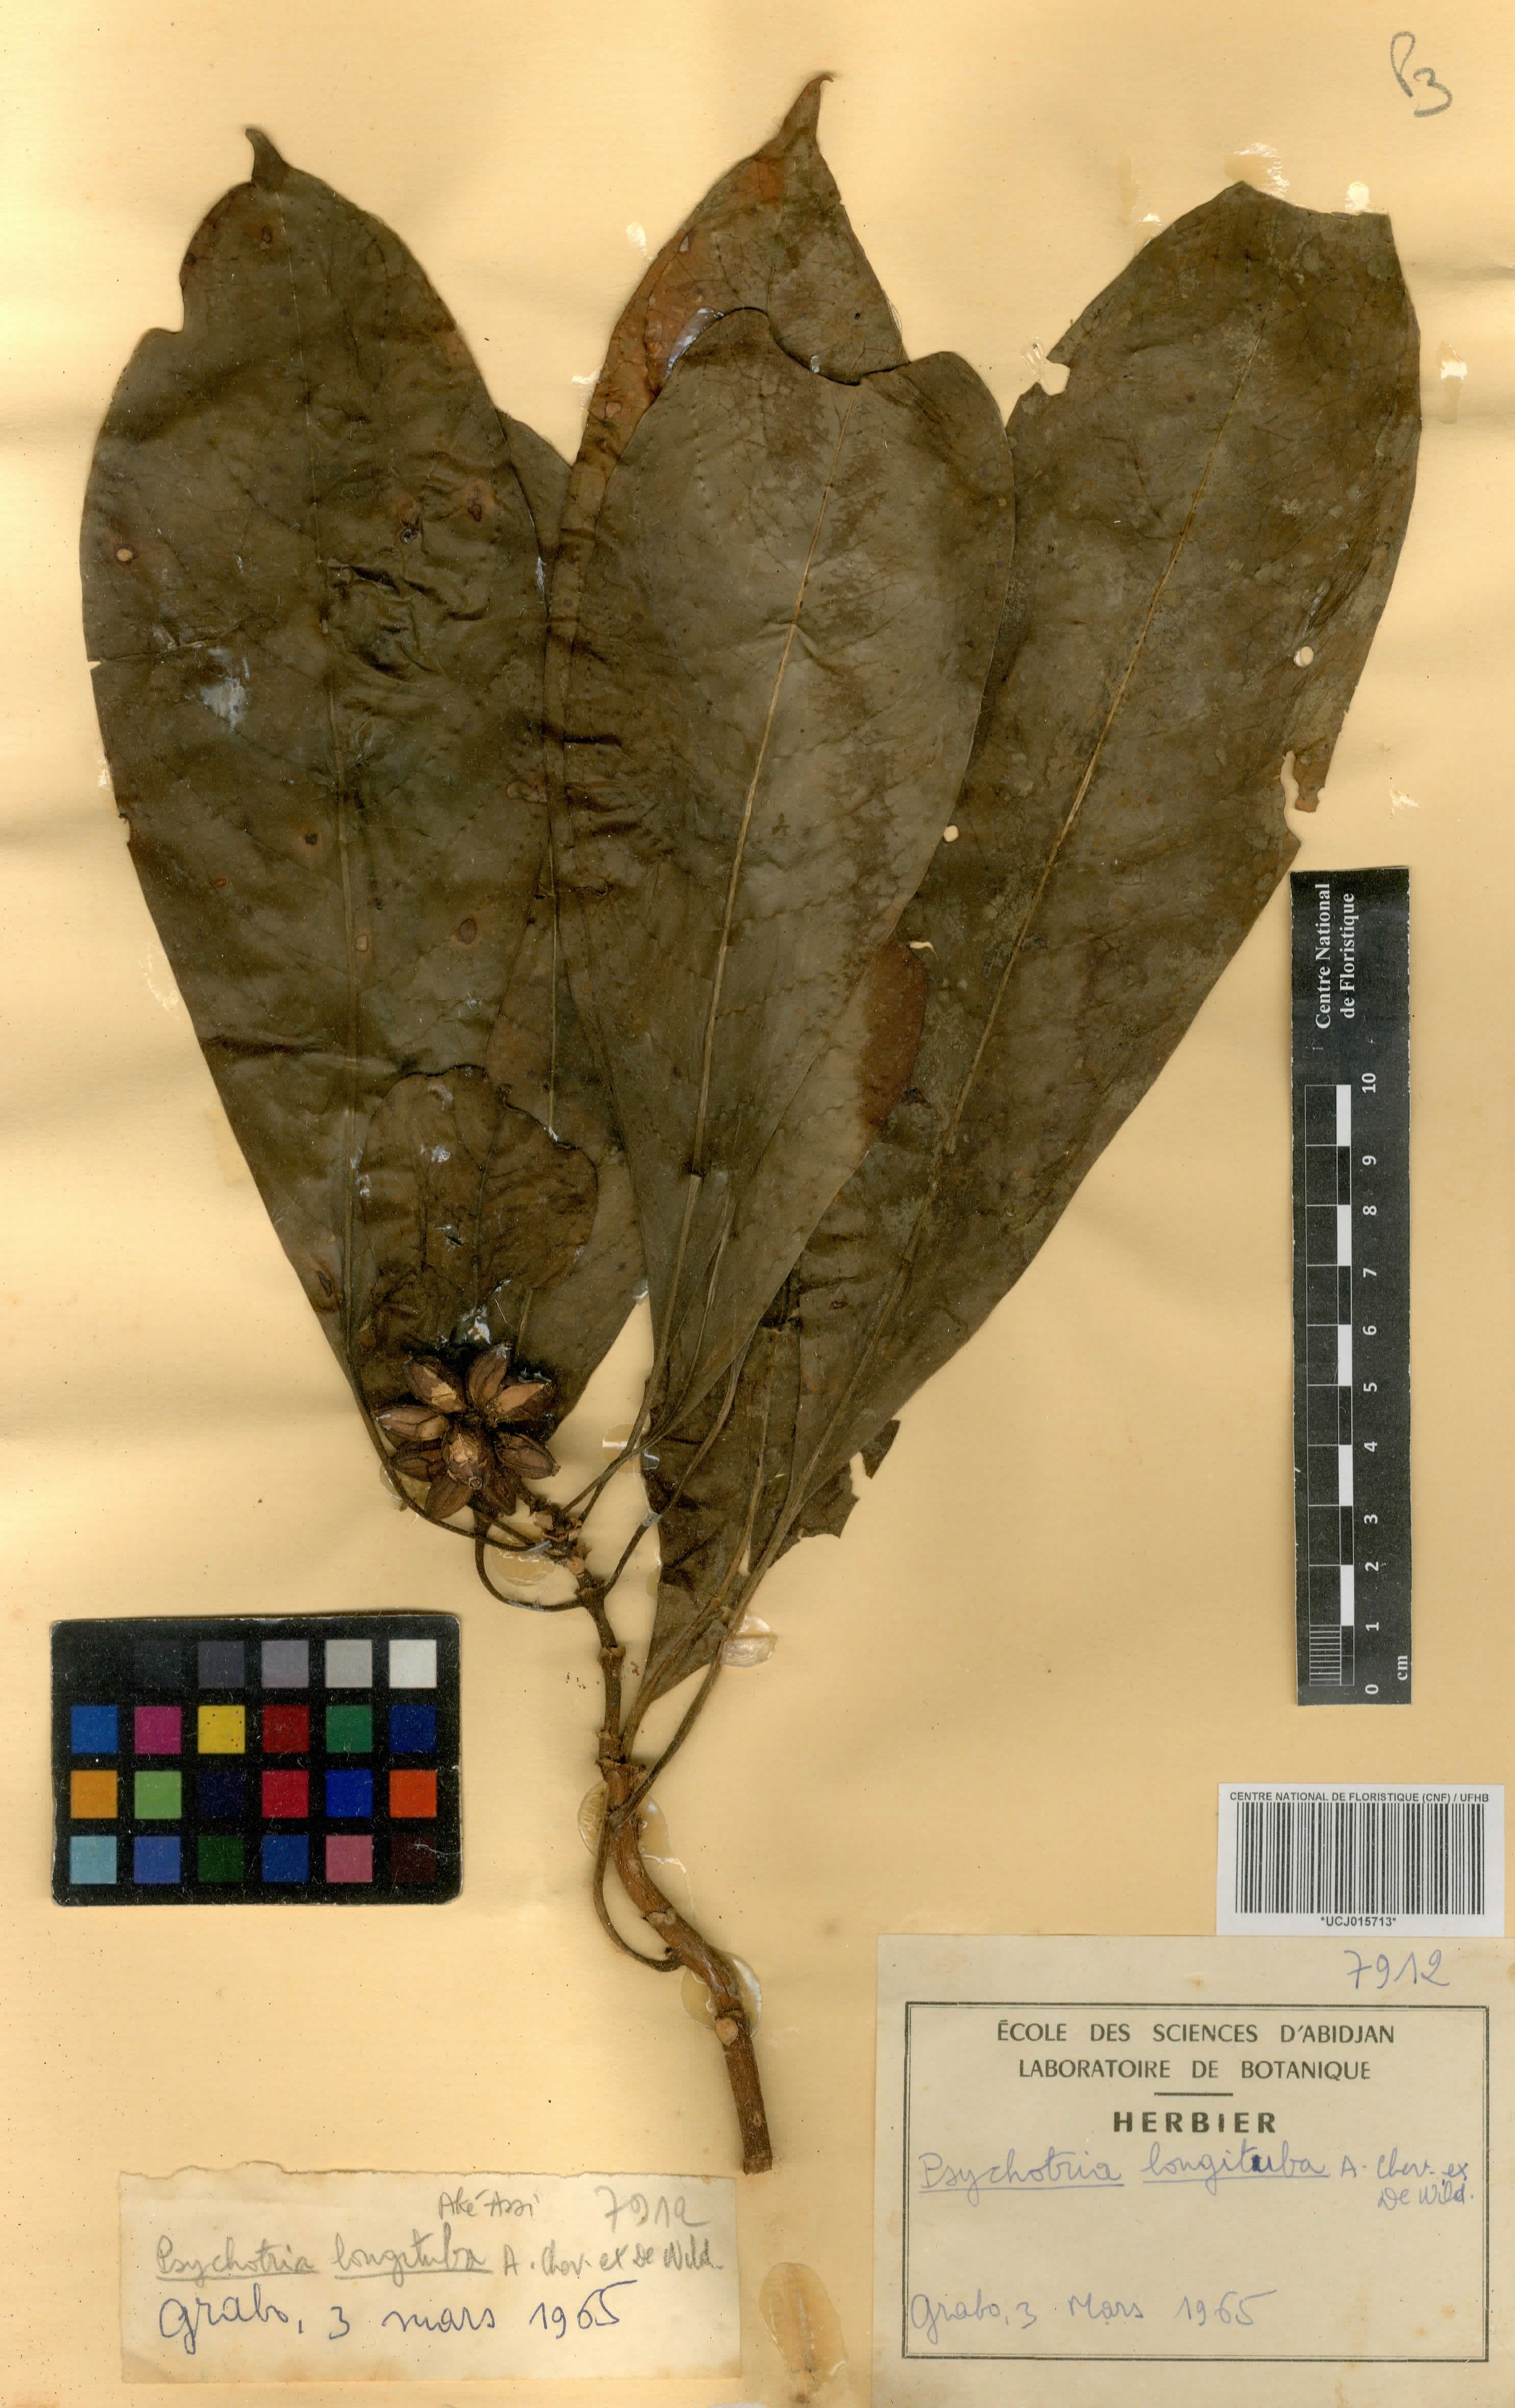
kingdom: Plantae
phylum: Tracheophyta
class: Magnoliopsida
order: Gentianales
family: Rubiaceae
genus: Psychotria
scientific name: Psychotria longituba
